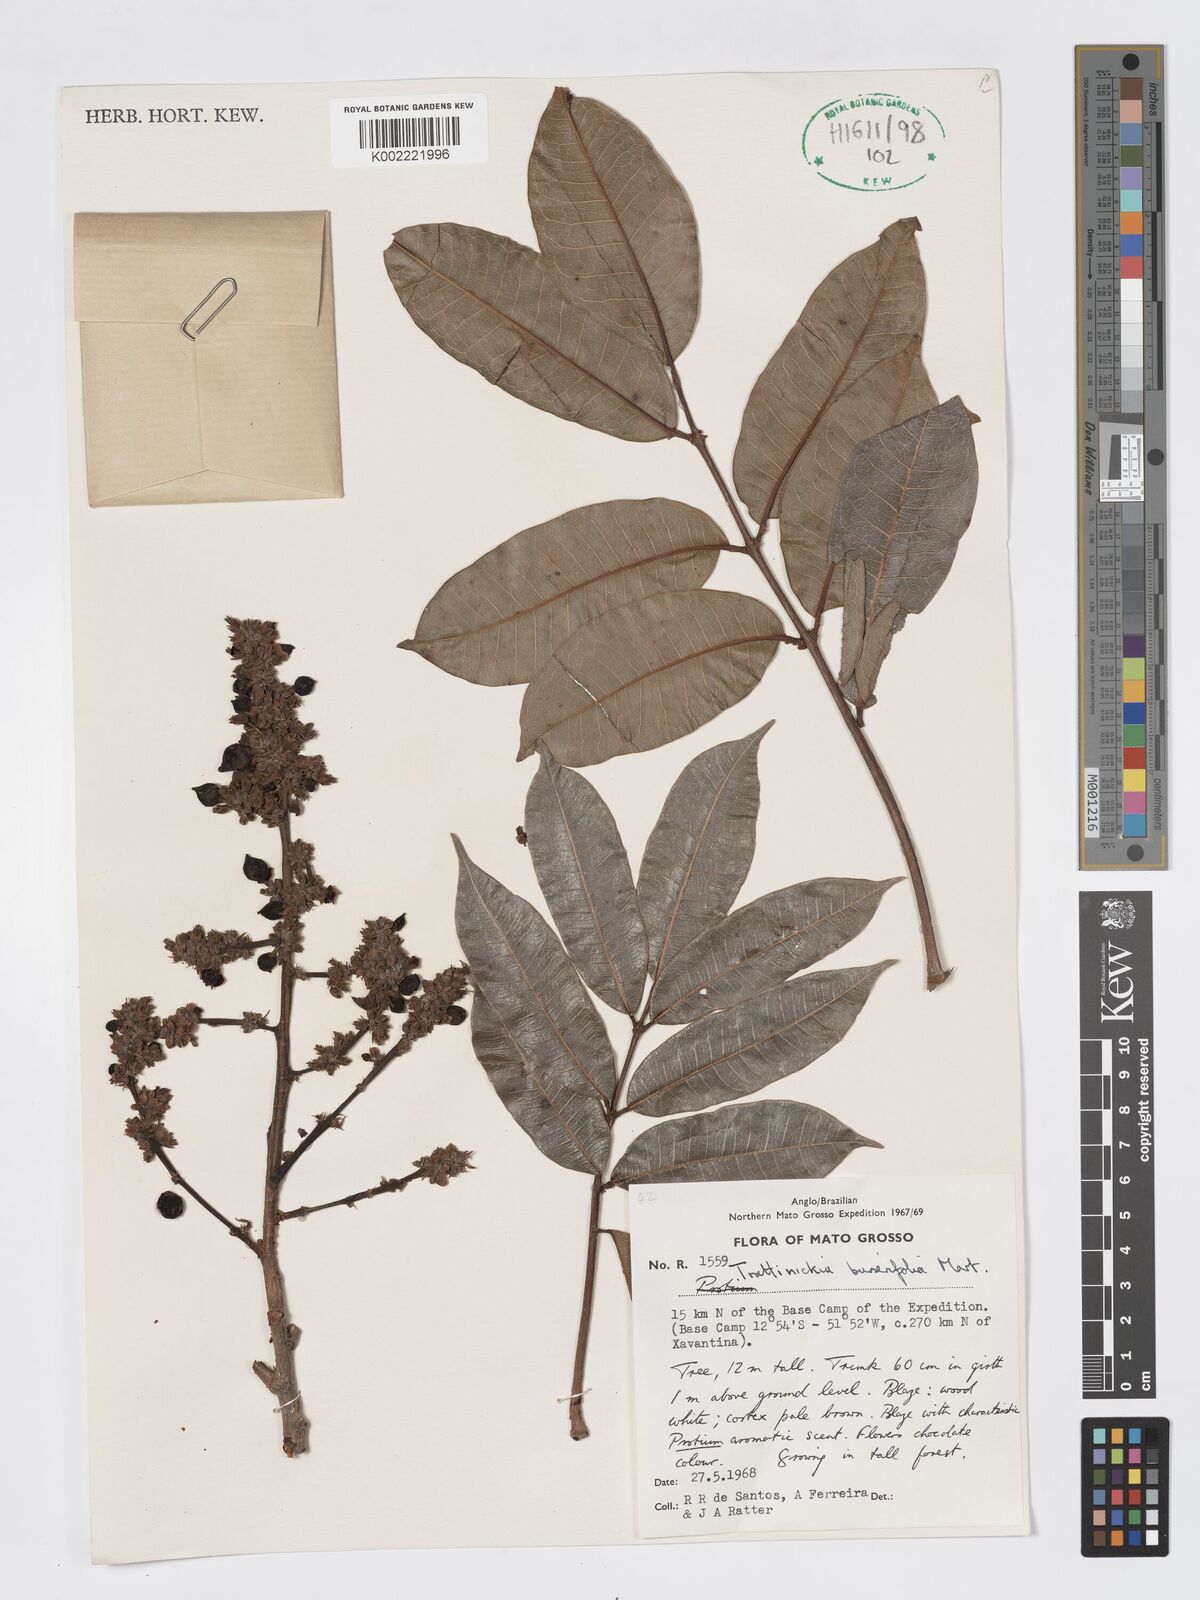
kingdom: Plantae
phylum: Tracheophyta
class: Magnoliopsida
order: Sapindales
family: Burseraceae
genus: Trattinnickia
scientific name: Trattinnickia burserifolia
